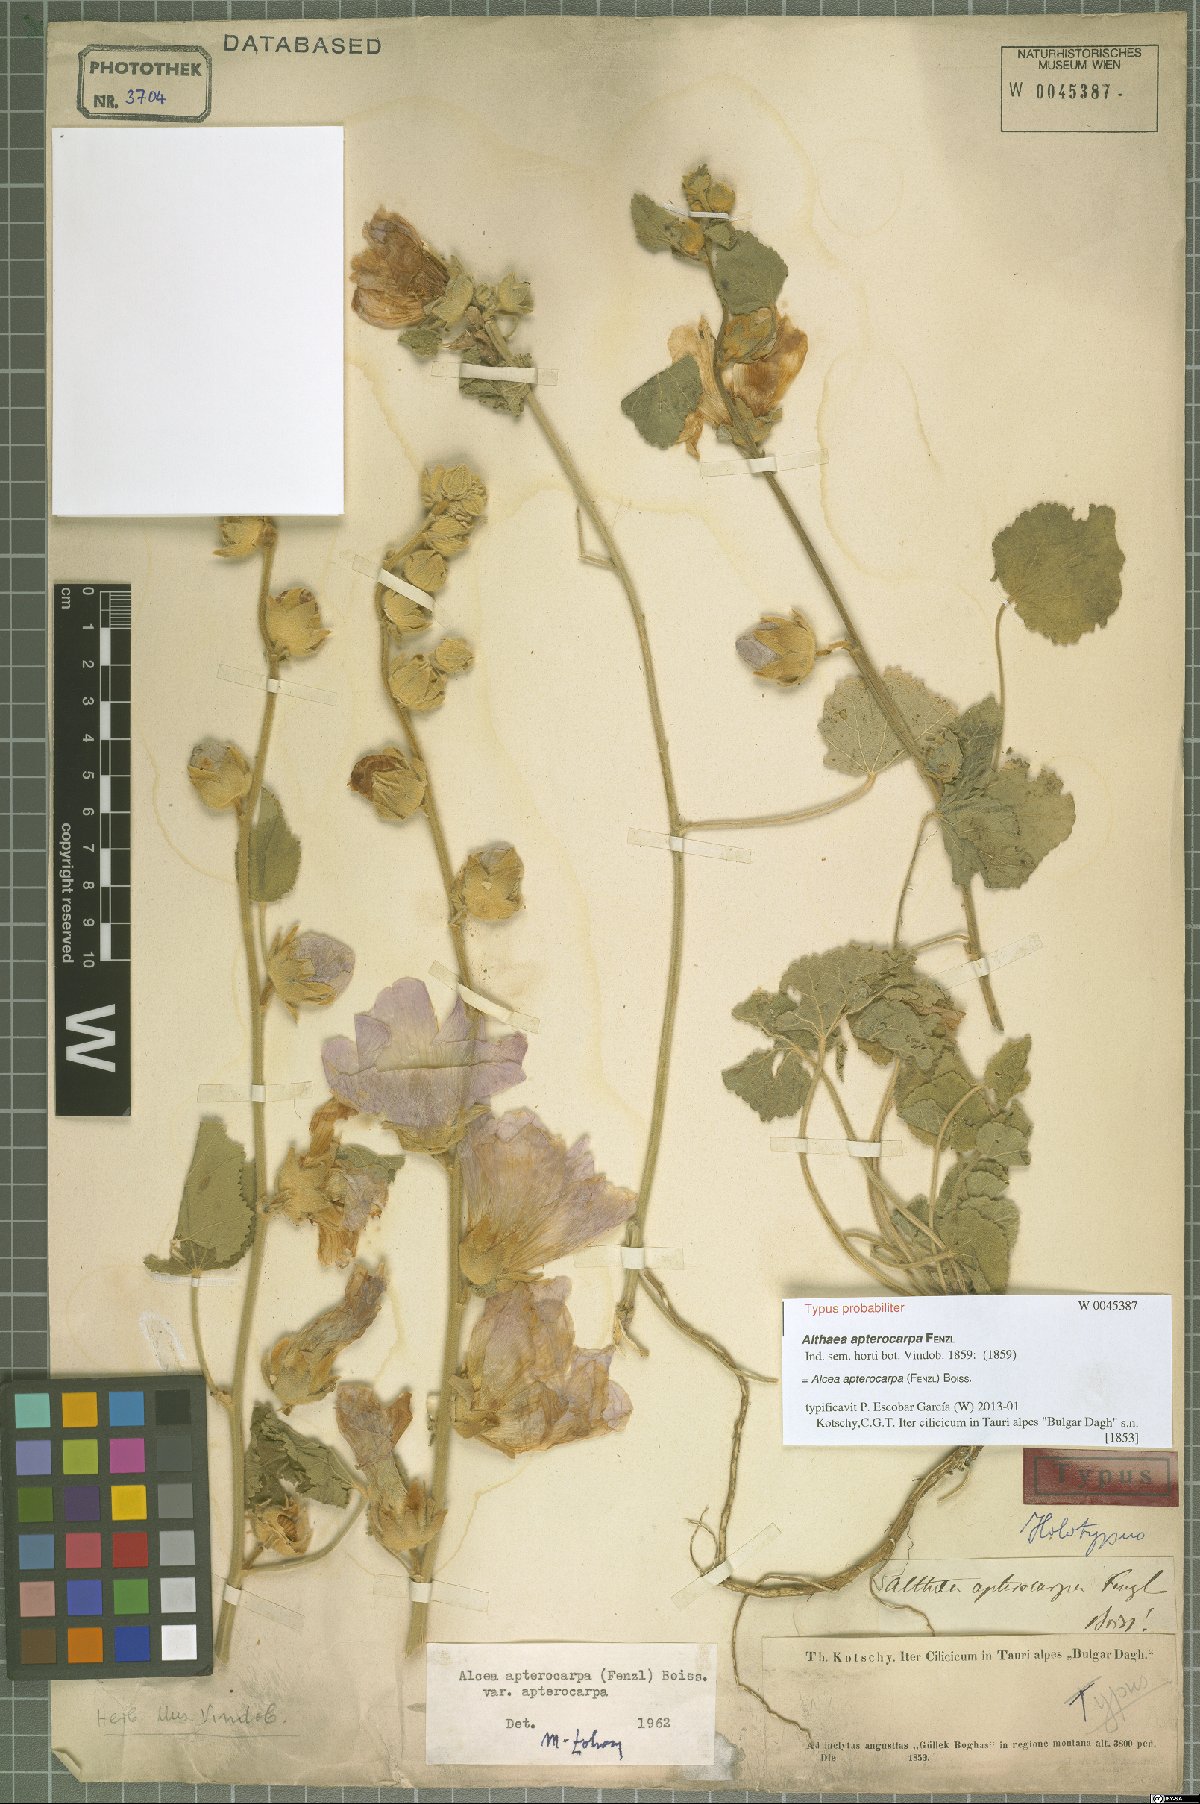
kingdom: Plantae
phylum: Tracheophyta
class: Magnoliopsida
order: Malvales
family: Malvaceae
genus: Alcea
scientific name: Alcea apterocarpa
